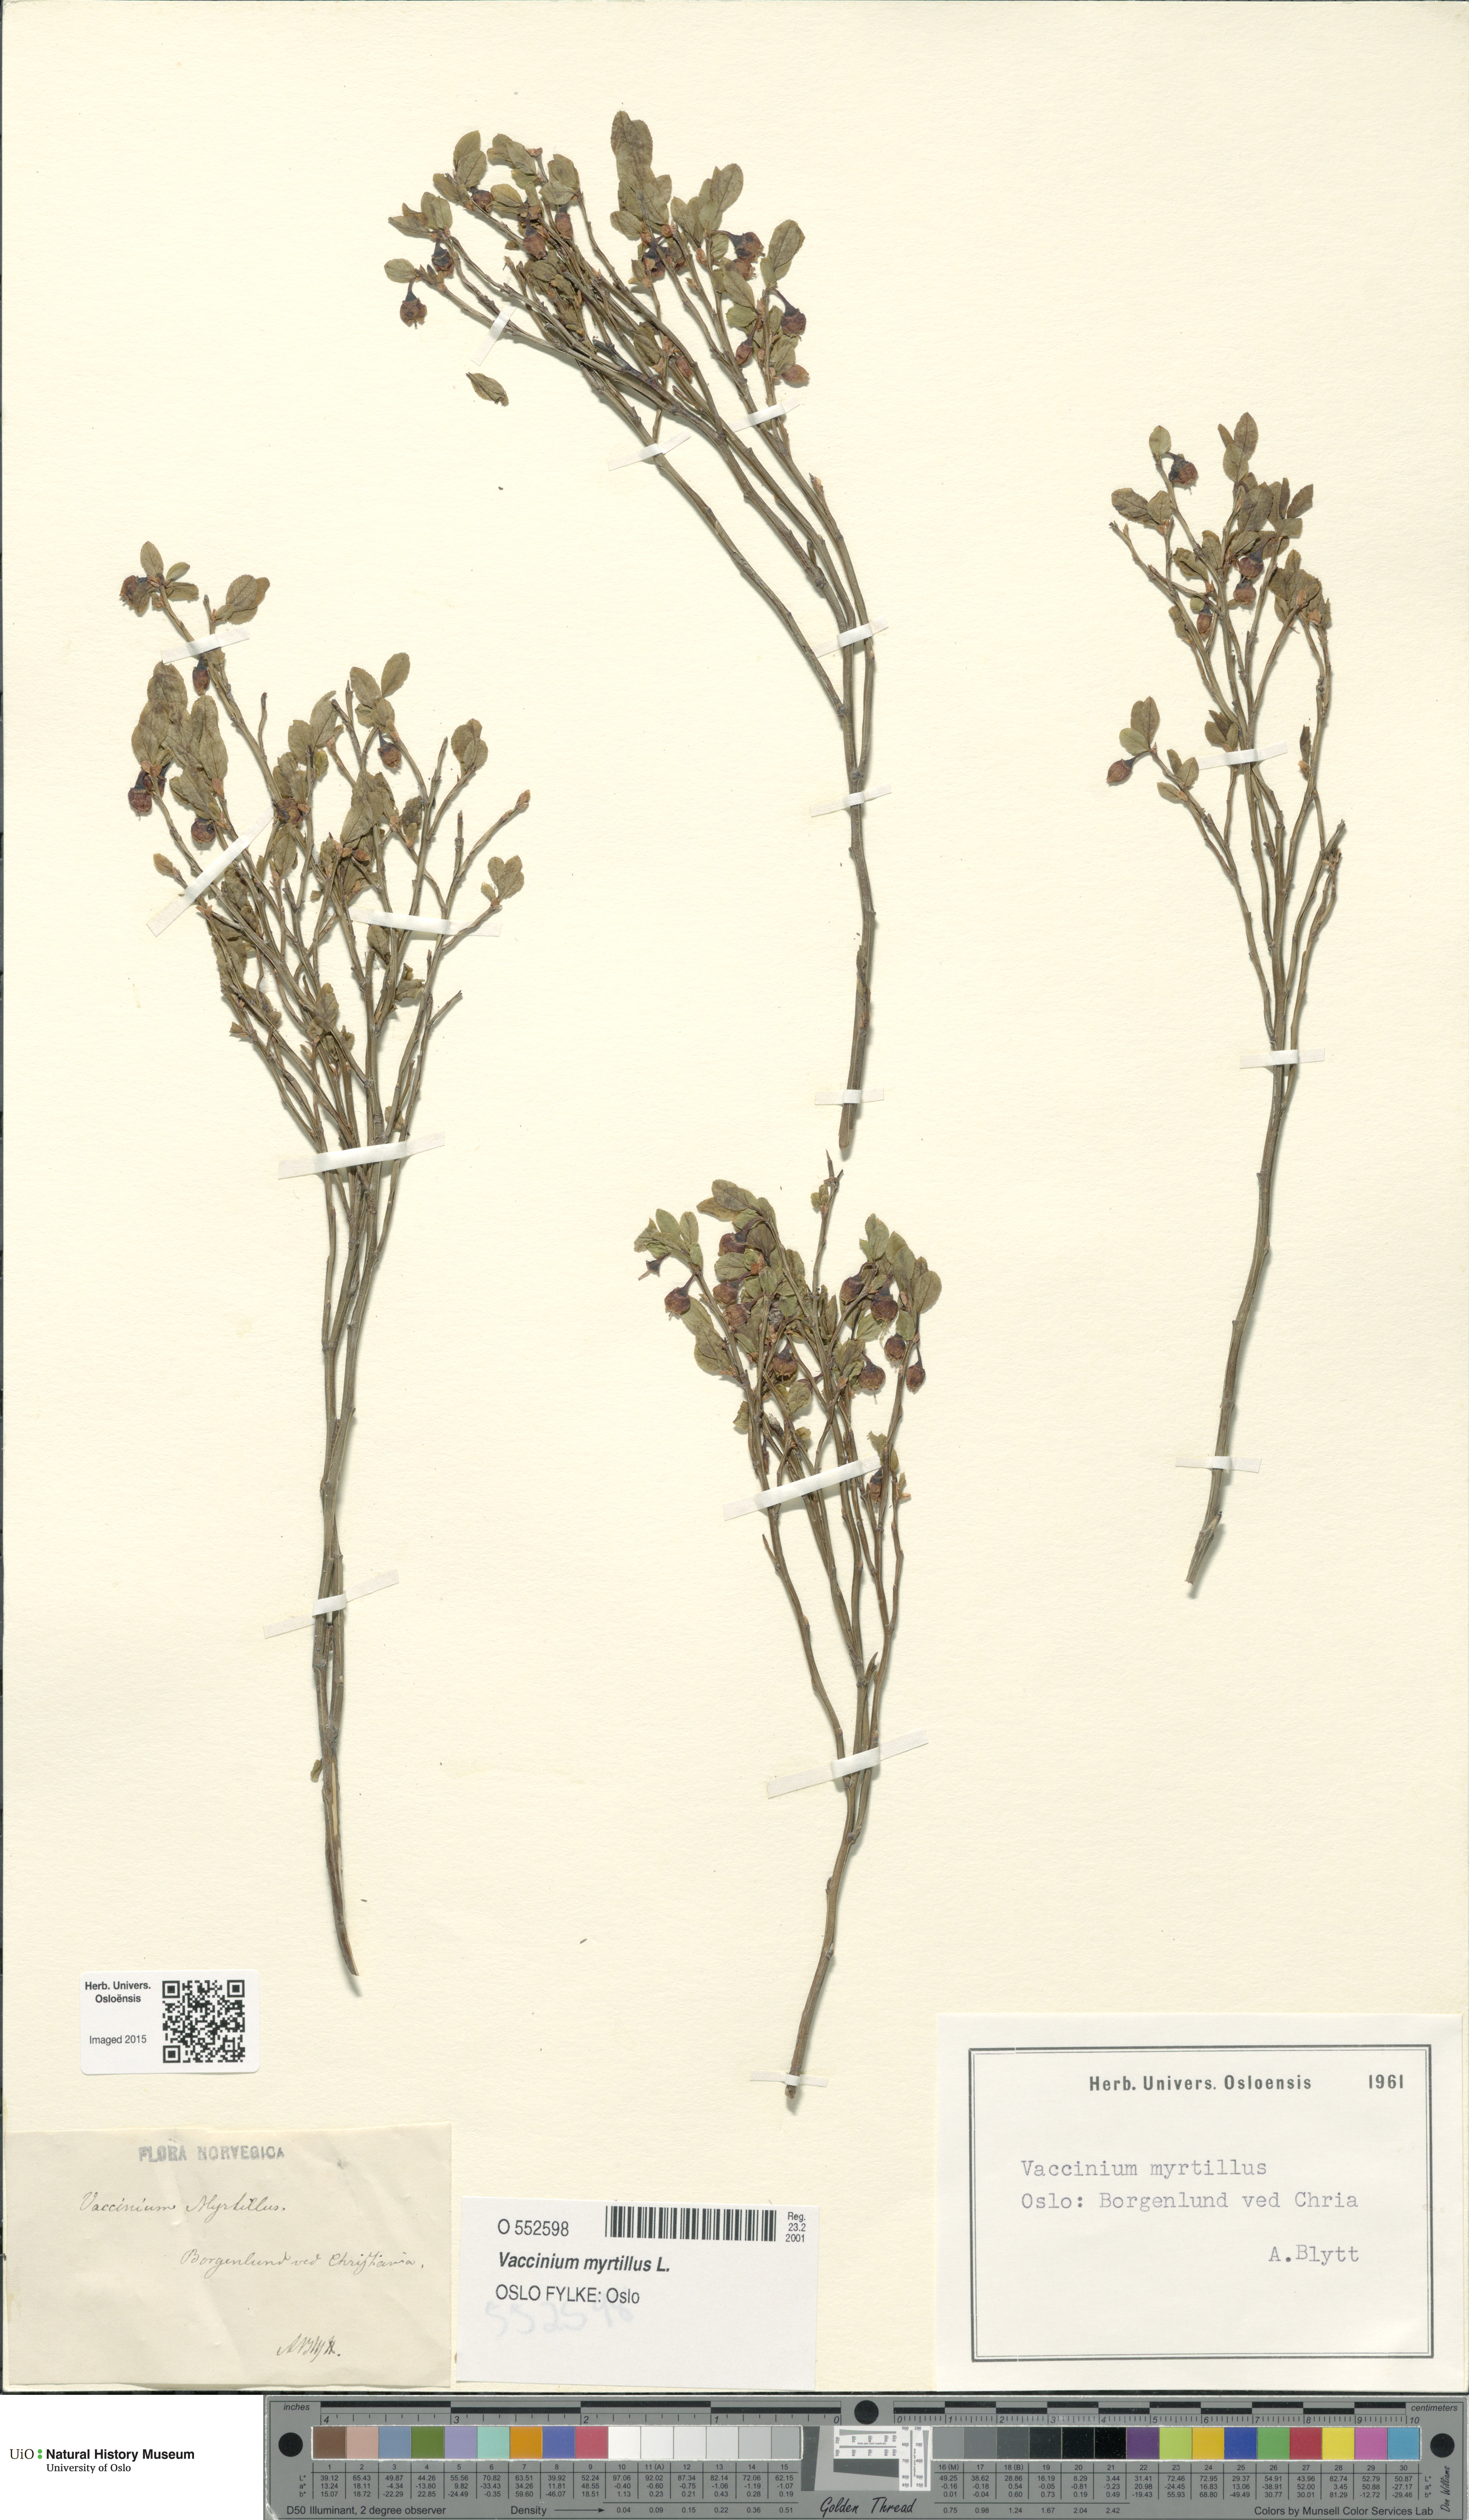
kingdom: Plantae
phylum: Tracheophyta
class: Magnoliopsida
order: Ericales
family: Ericaceae
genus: Vaccinium
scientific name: Vaccinium myrtillus
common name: Bilberry
